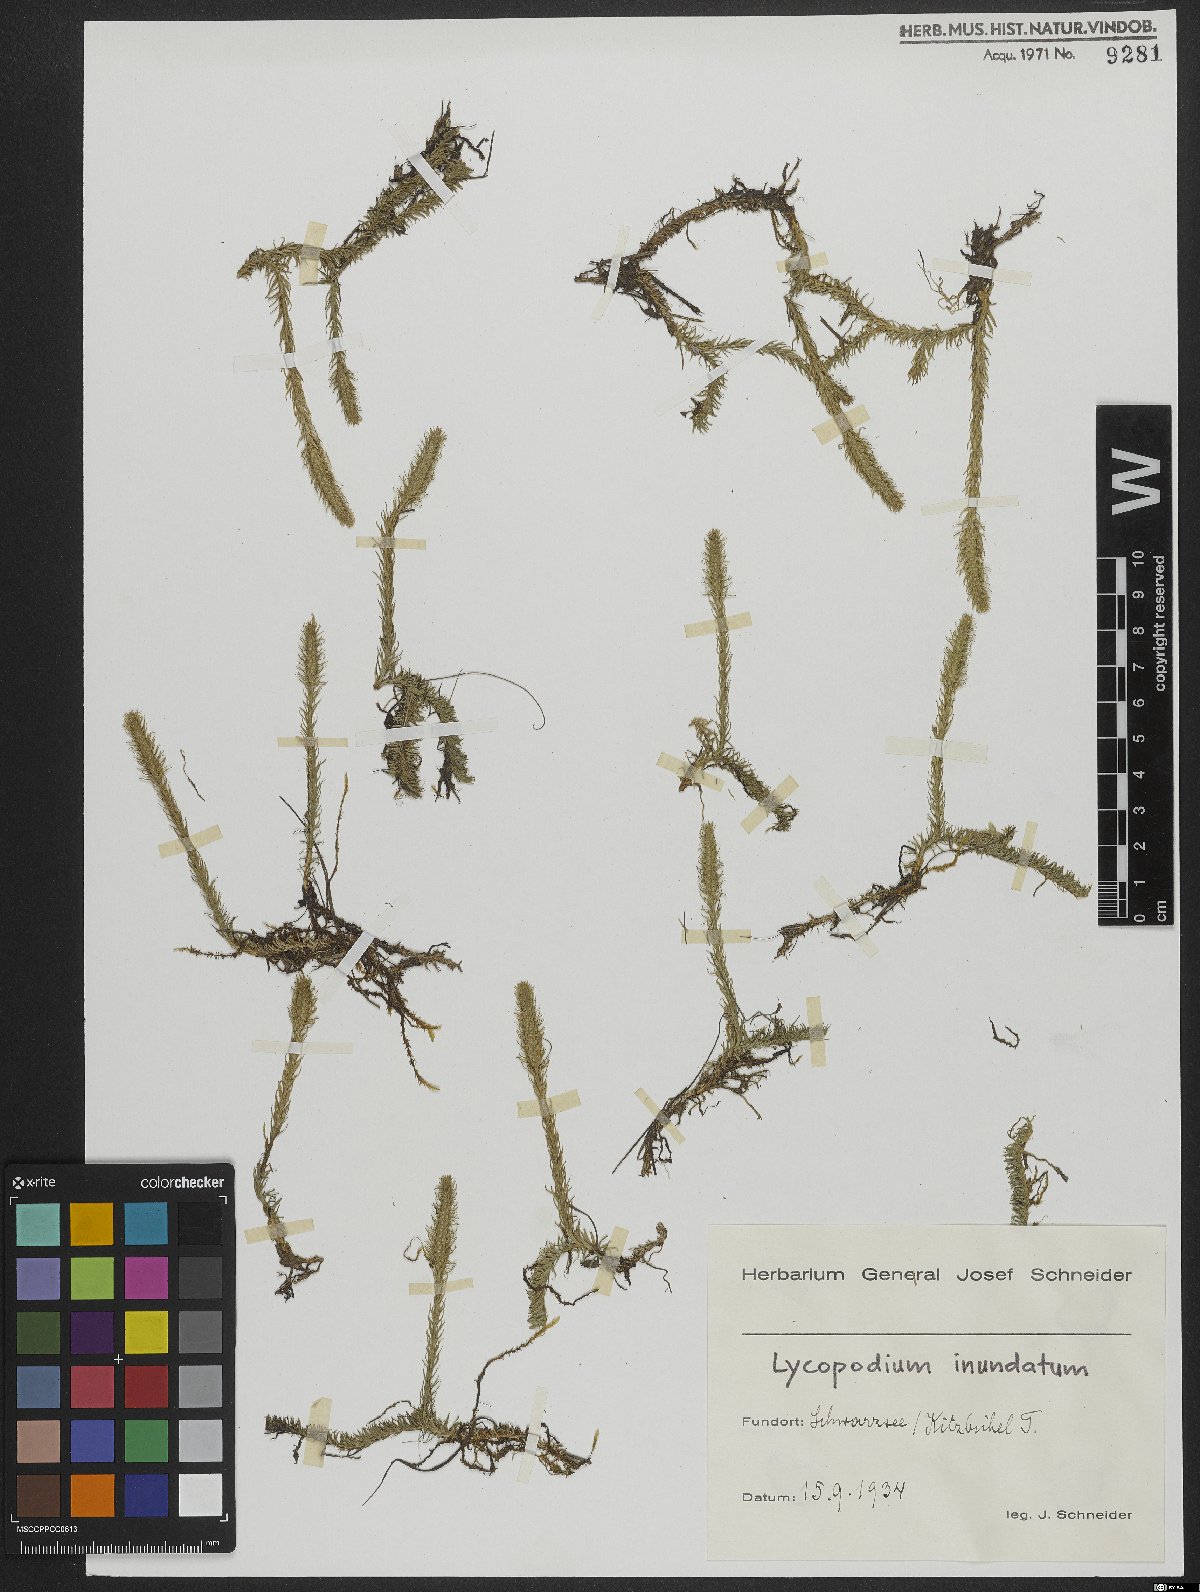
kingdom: Plantae
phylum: Tracheophyta
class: Lycopodiopsida
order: Lycopodiales
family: Lycopodiaceae
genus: Lycopodiella
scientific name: Lycopodiella inundata
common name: Marsh clubmoss
